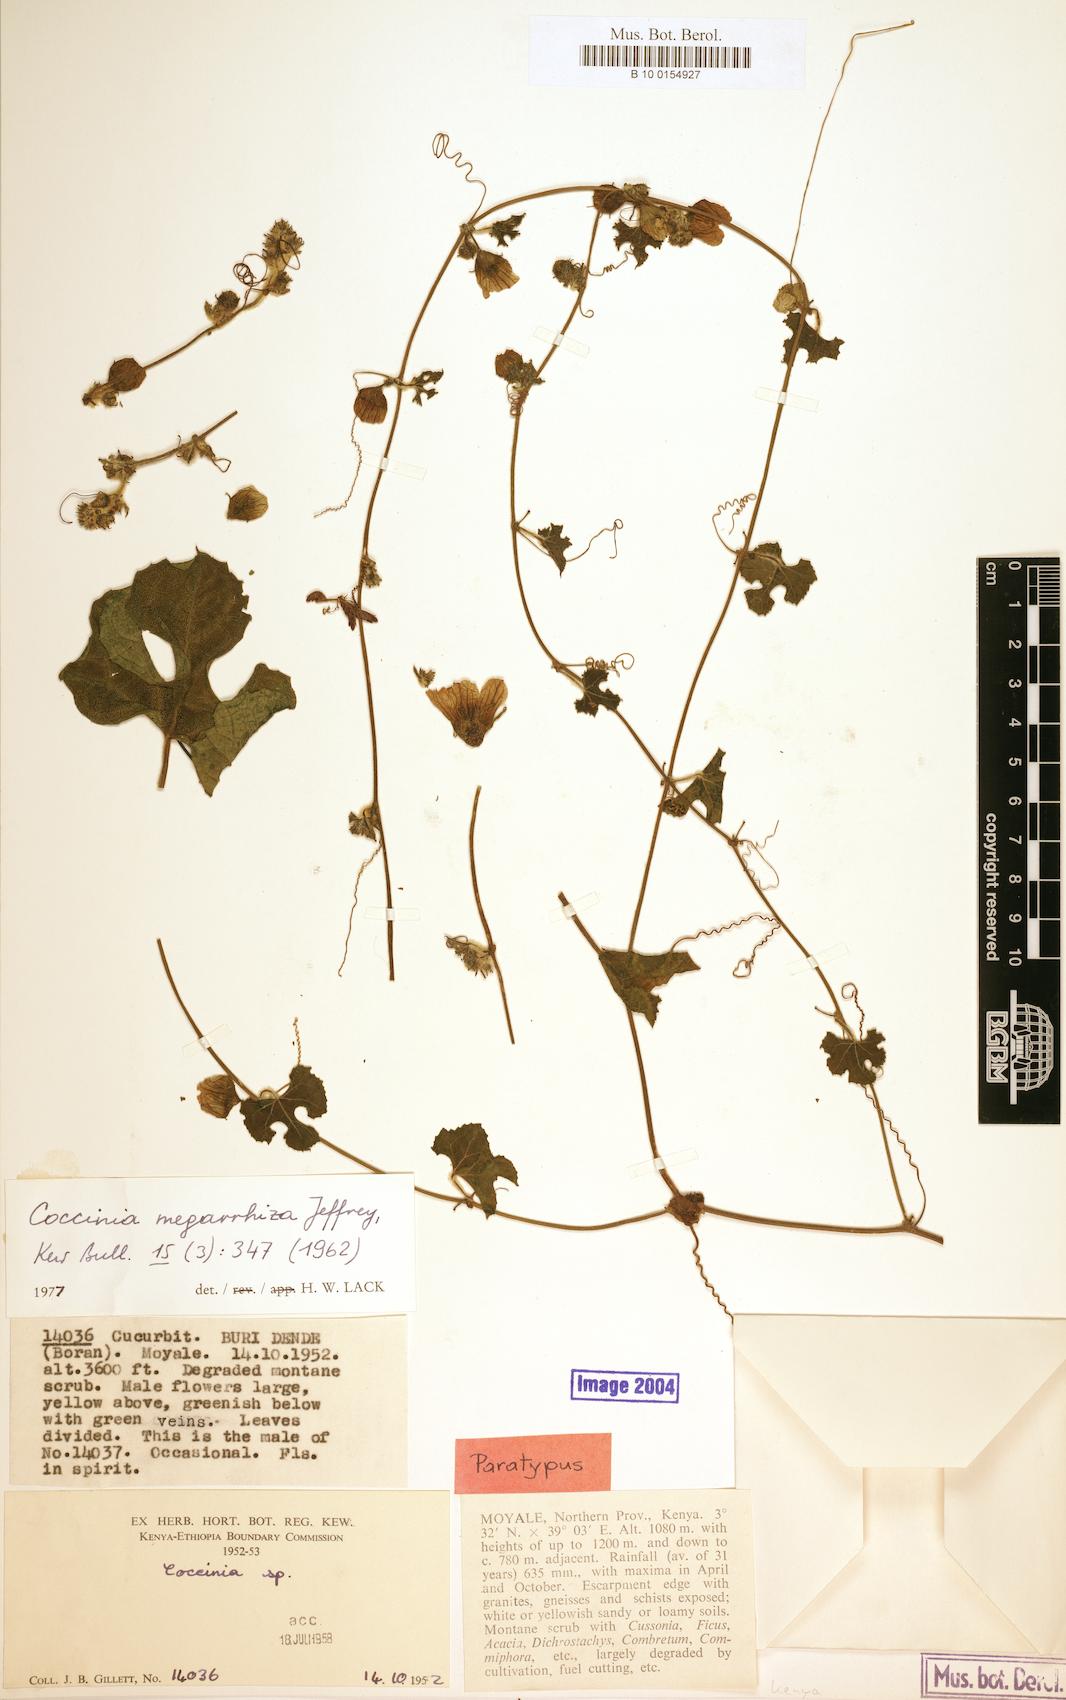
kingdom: Plantae
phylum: Tracheophyta
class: Magnoliopsida
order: Cucurbitales
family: Cucurbitaceae
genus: Coccinia
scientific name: Coccinia megarrhiza
